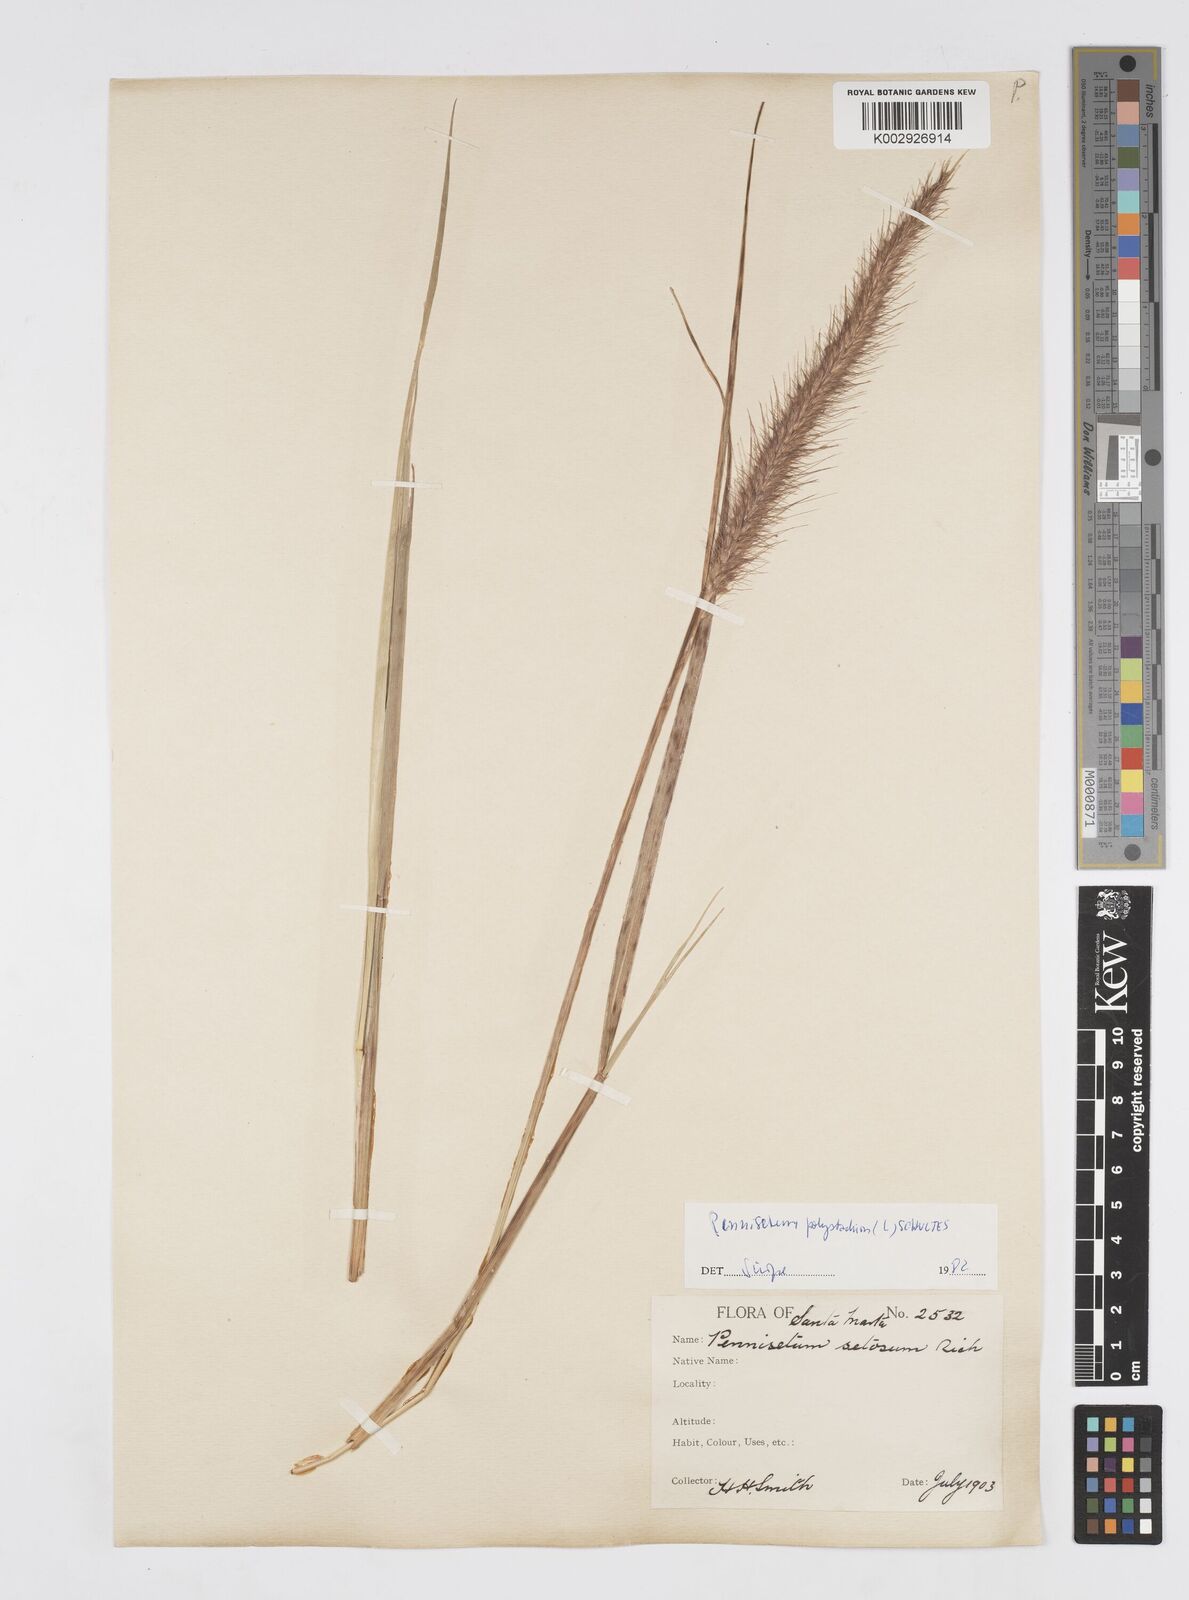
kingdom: Plantae
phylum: Tracheophyta
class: Liliopsida
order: Poales
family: Poaceae
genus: Setaria
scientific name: Setaria parviflora
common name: Knotroot bristle-grass
